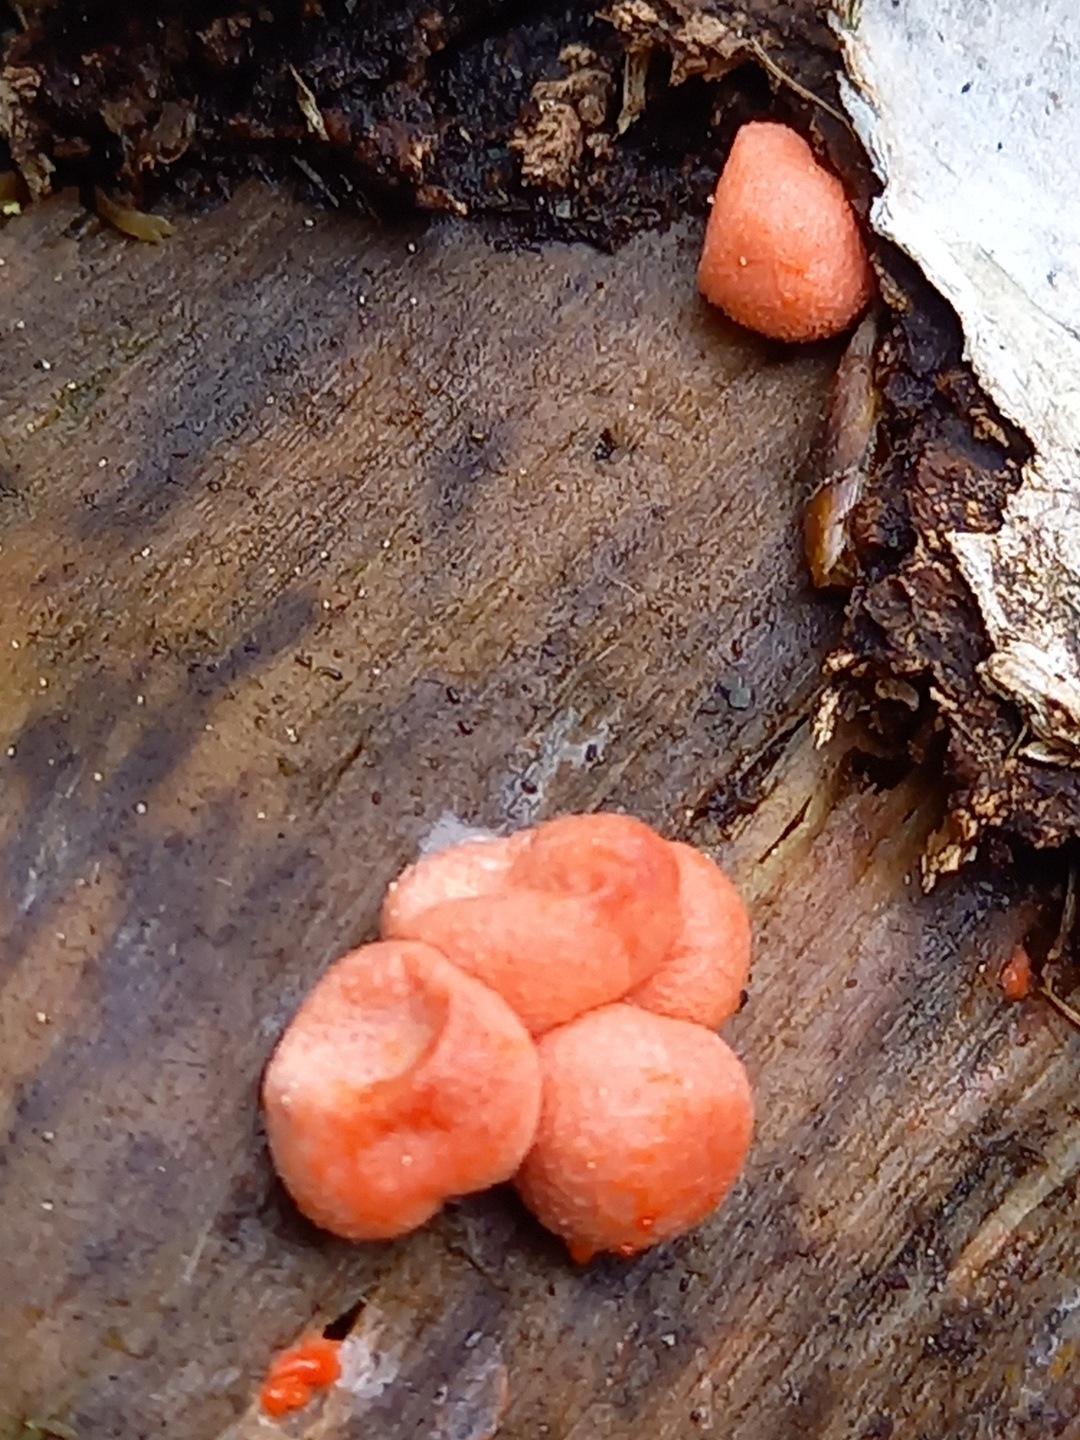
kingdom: Protozoa
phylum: Mycetozoa
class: Myxomycetes
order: Cribrariales
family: Tubiferaceae
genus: Lycogala
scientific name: Lycogala epidendrum
